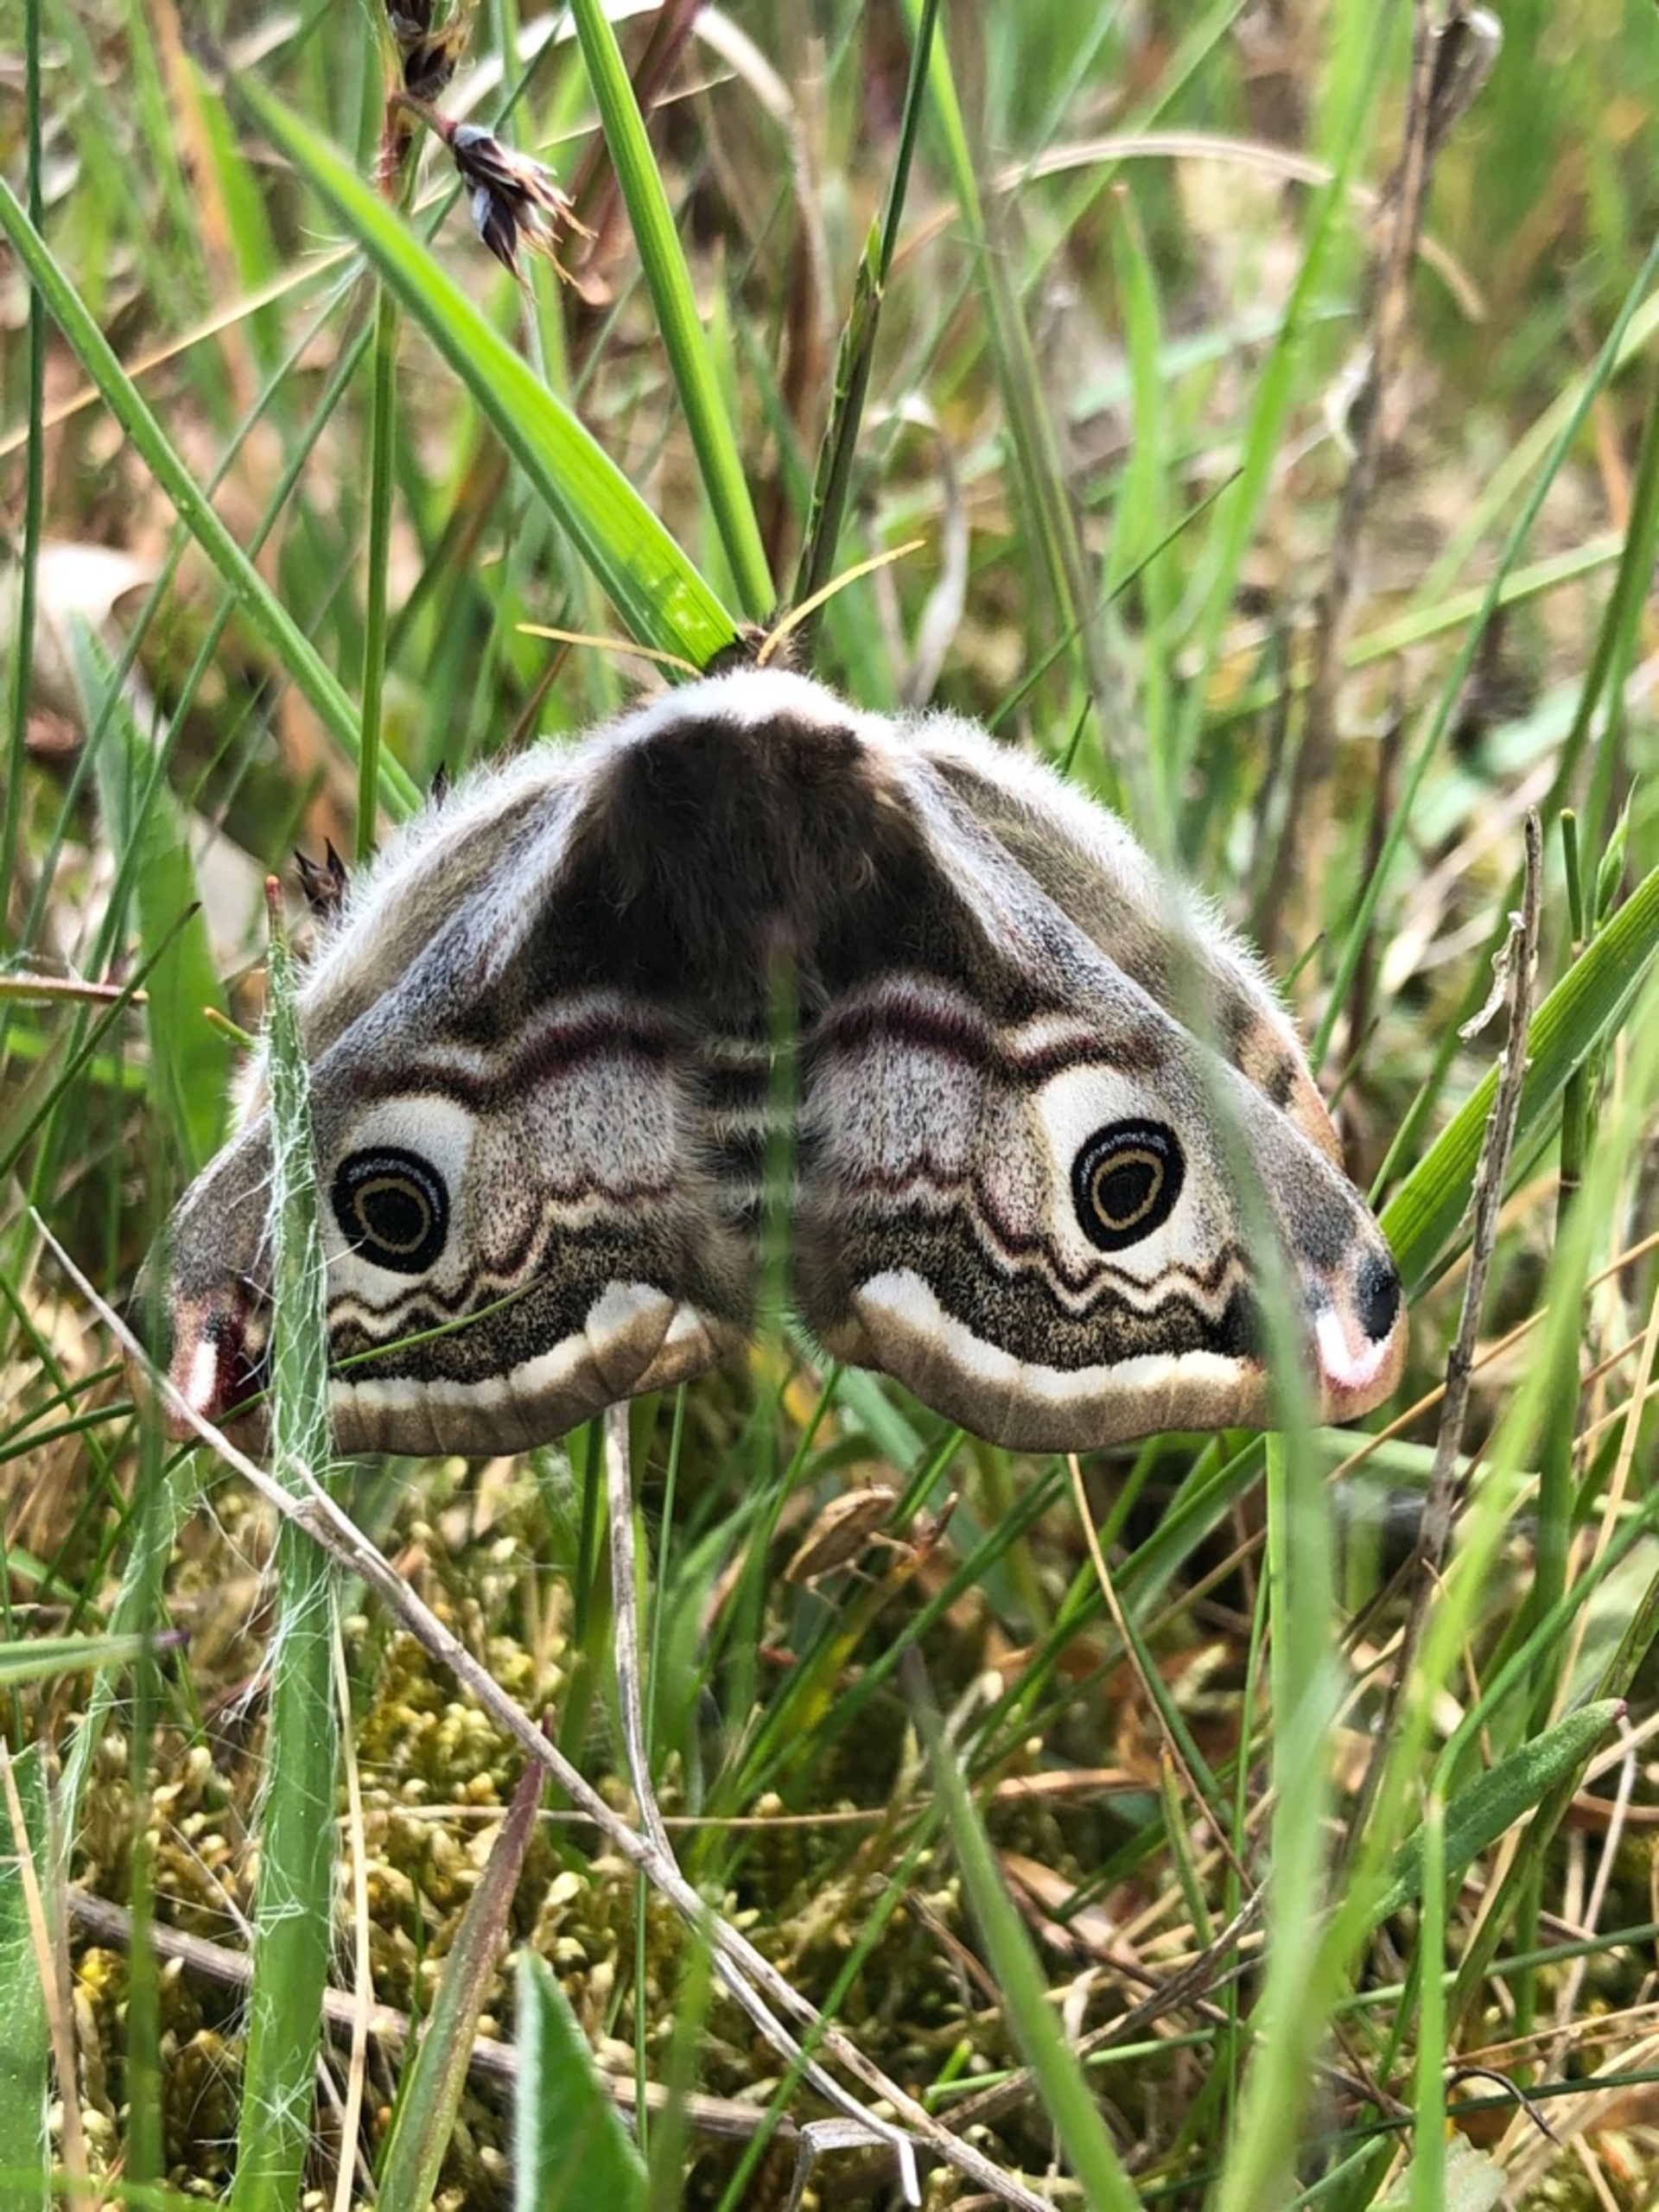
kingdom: Animalia
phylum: Arthropoda
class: Insecta
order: Lepidoptera
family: Saturniidae
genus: Saturnia
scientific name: Saturnia pavonia
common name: Lille natpåfugleøje
